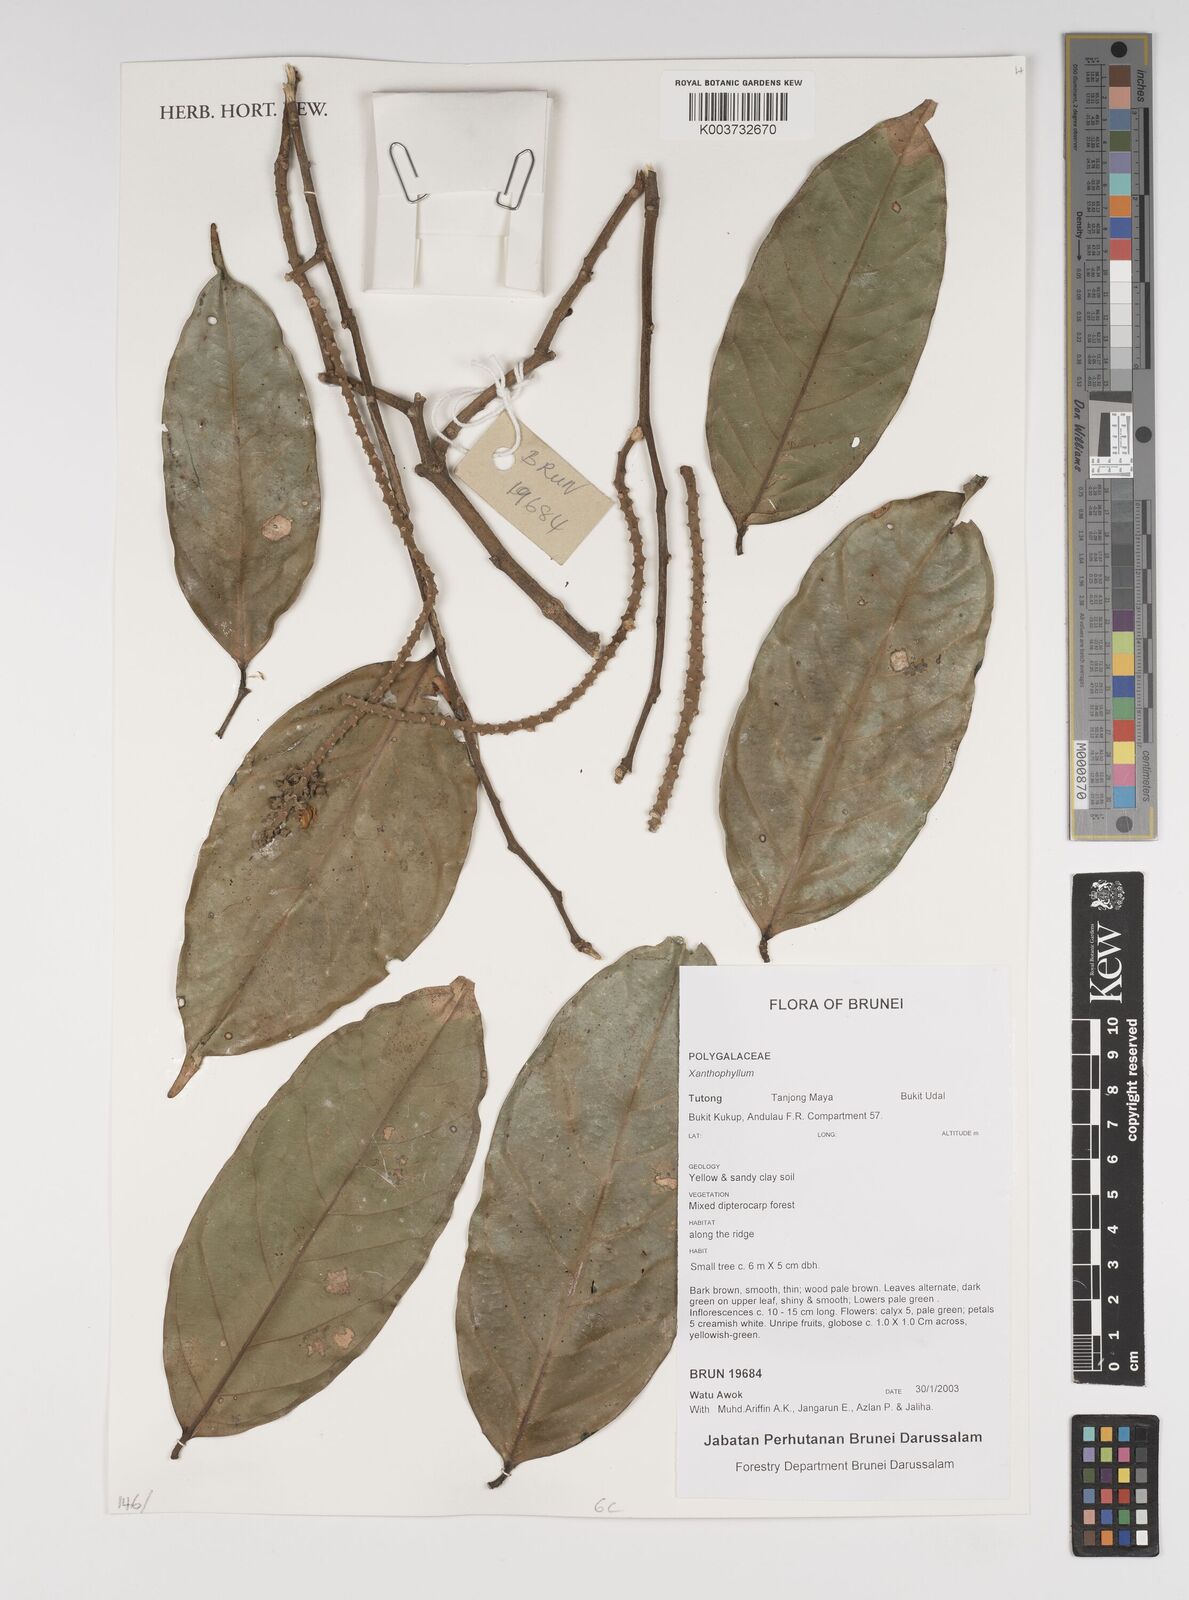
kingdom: Plantae
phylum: Tracheophyta
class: Magnoliopsida
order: Fabales
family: Polygalaceae
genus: Xanthophyllum
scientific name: Xanthophyllum
